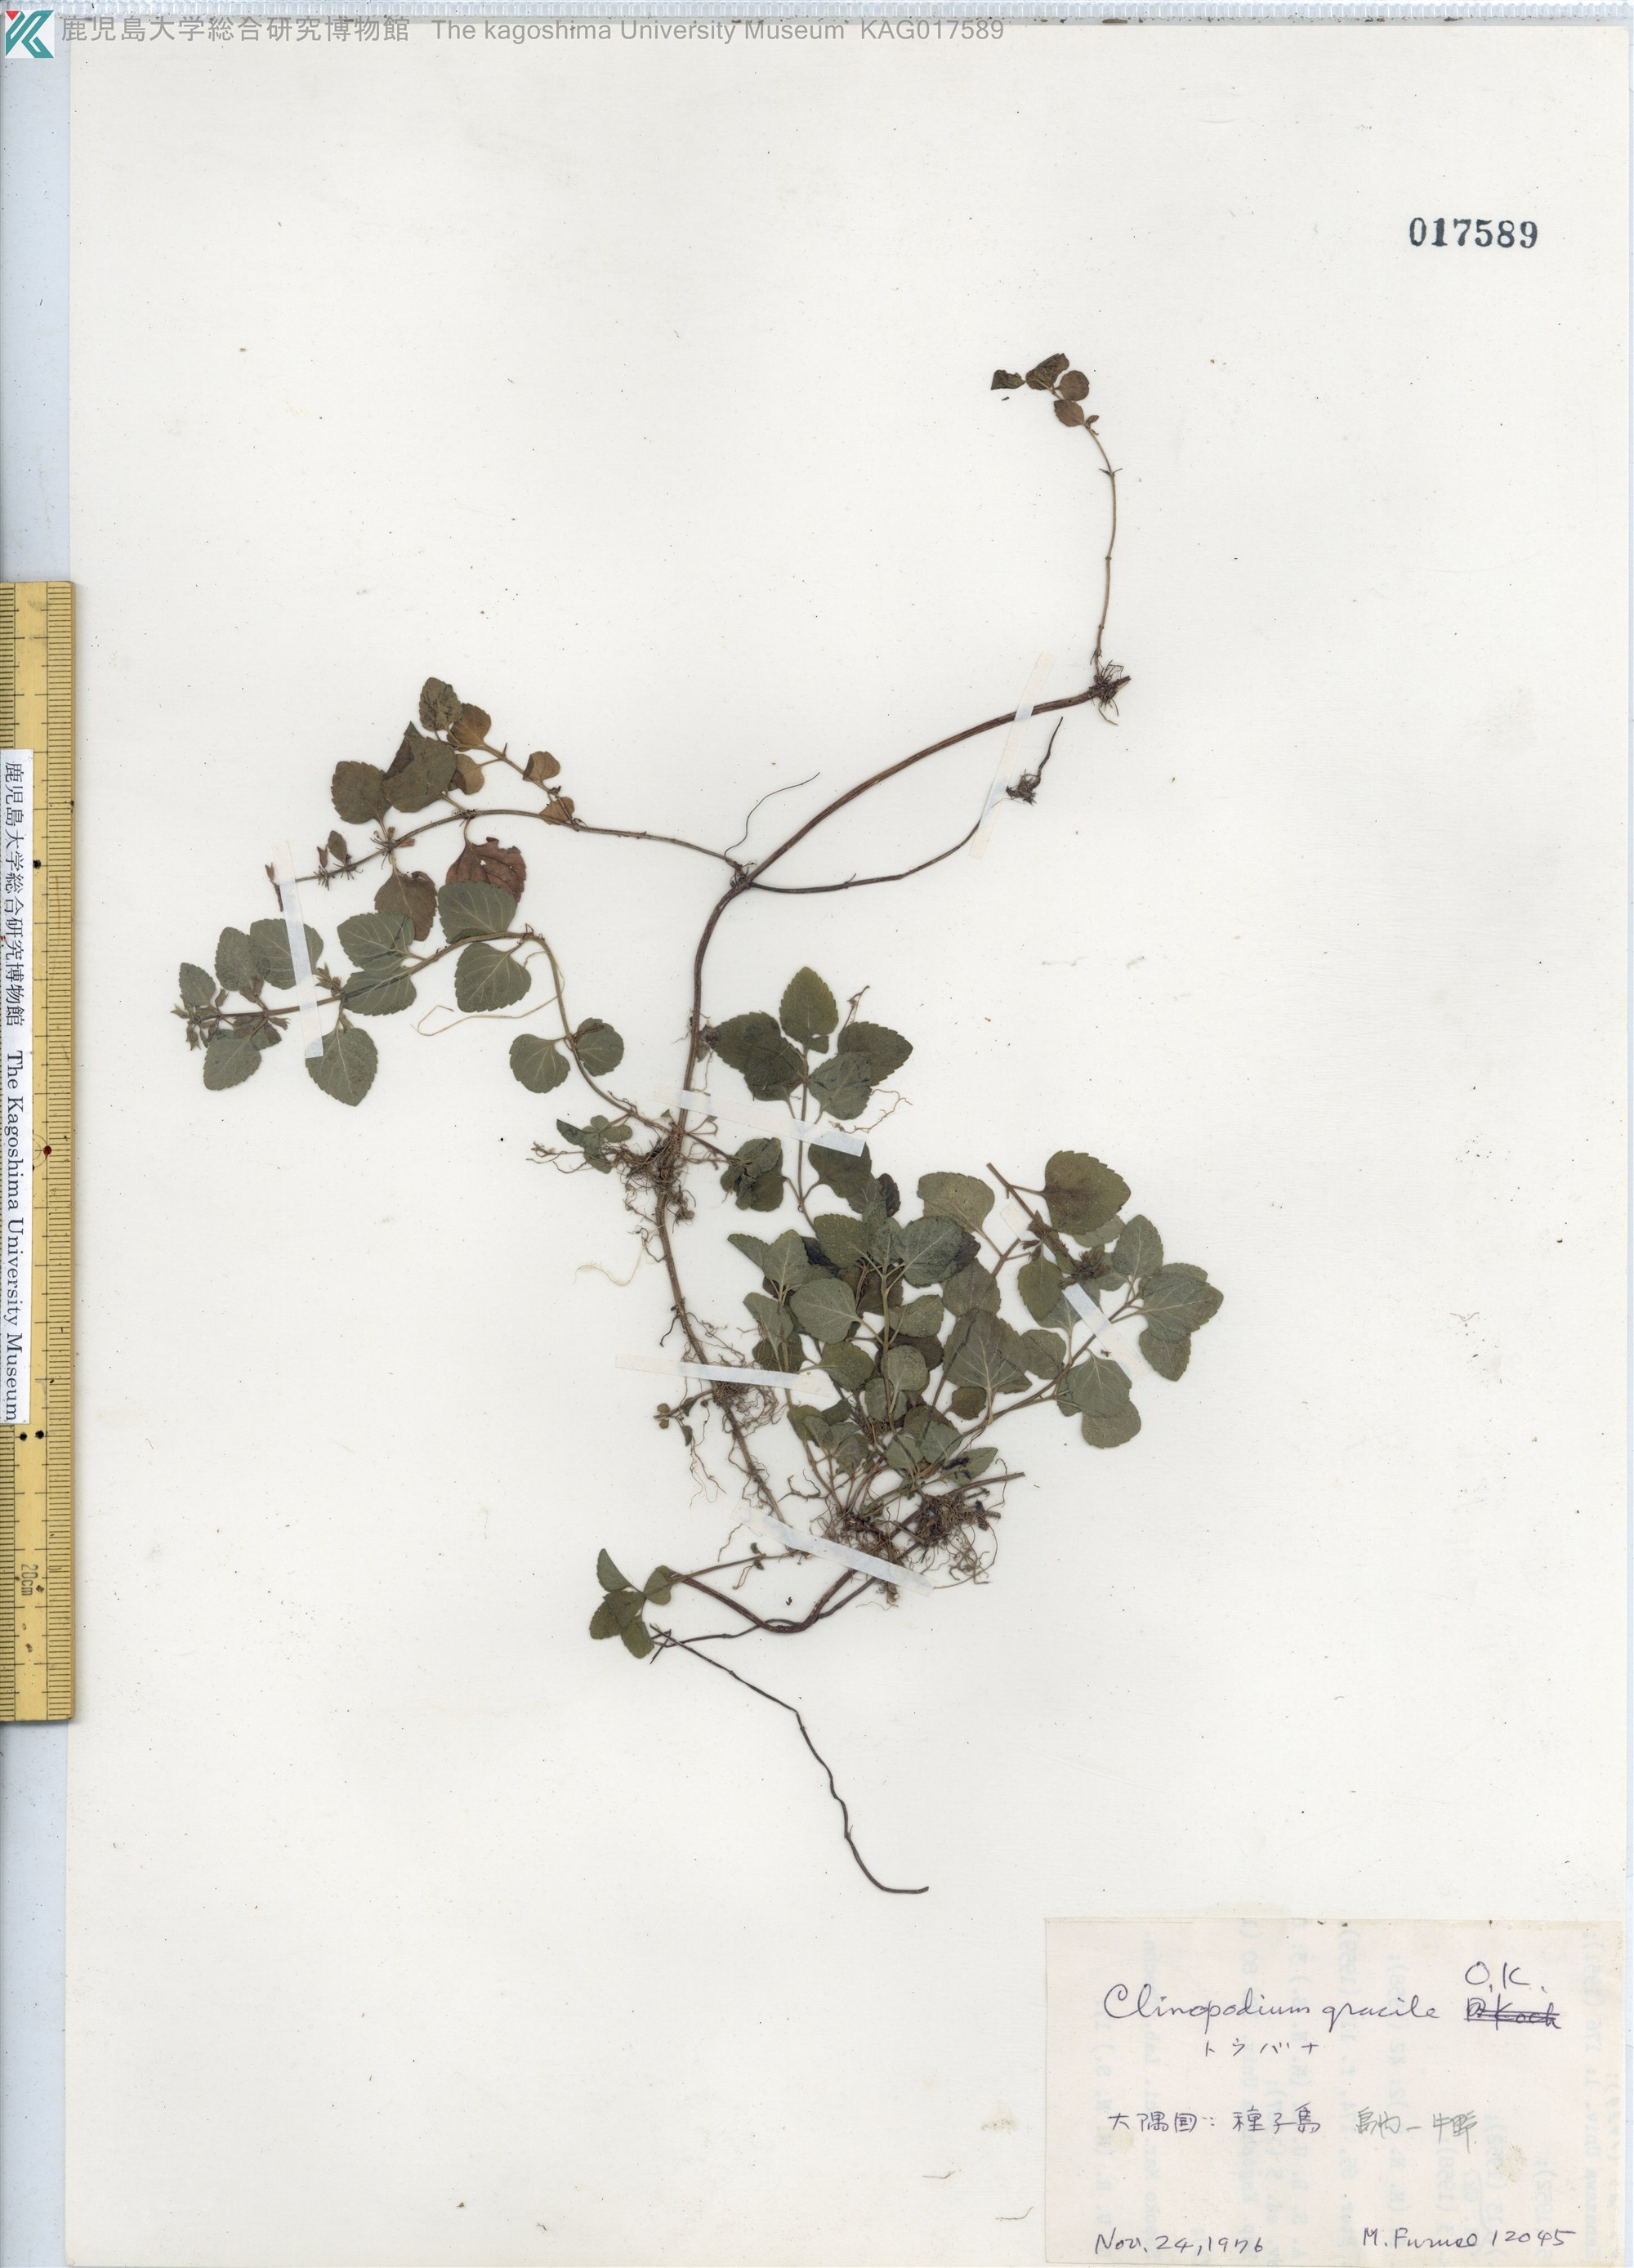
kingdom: Plantae
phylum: Tracheophyta
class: Magnoliopsida
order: Lamiales
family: Lamiaceae
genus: Clinopodium
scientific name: Clinopodium gracile
